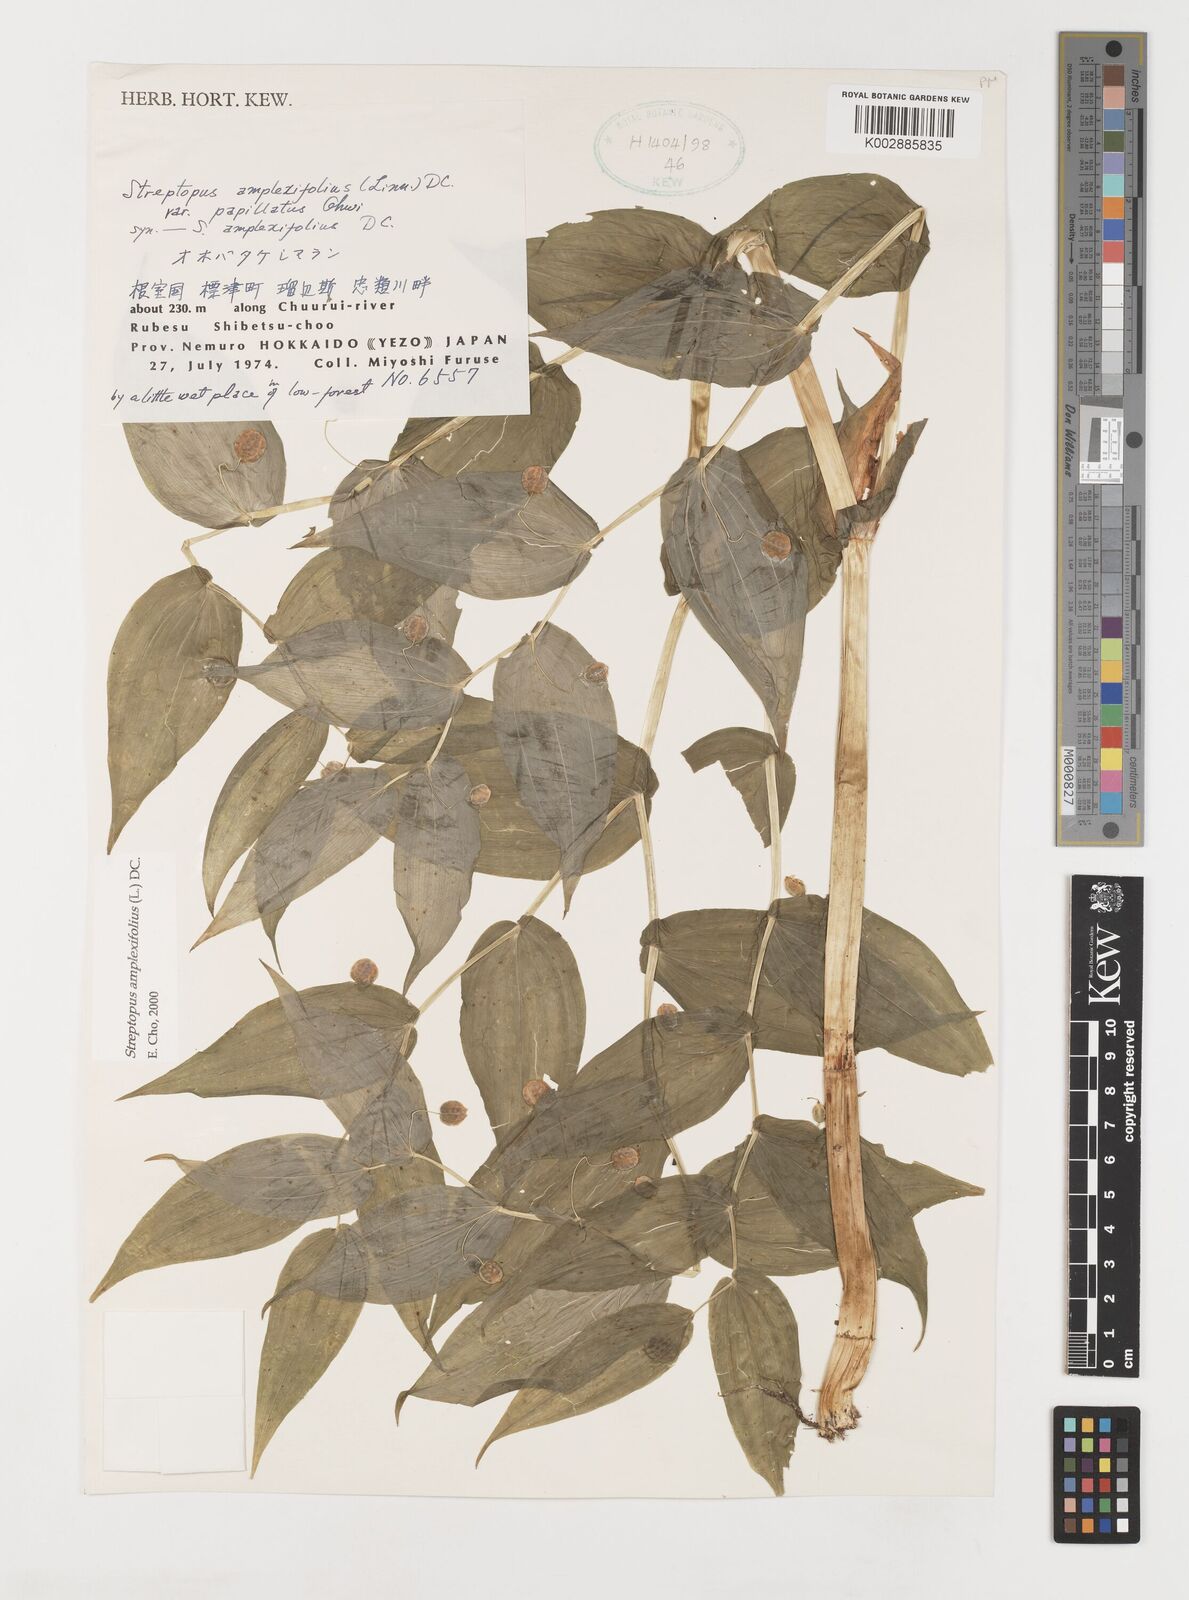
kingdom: Plantae
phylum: Tracheophyta
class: Liliopsida
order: Liliales
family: Liliaceae
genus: Streptopus
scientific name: Streptopus amplexifolius
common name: Clasp twisted stalk
